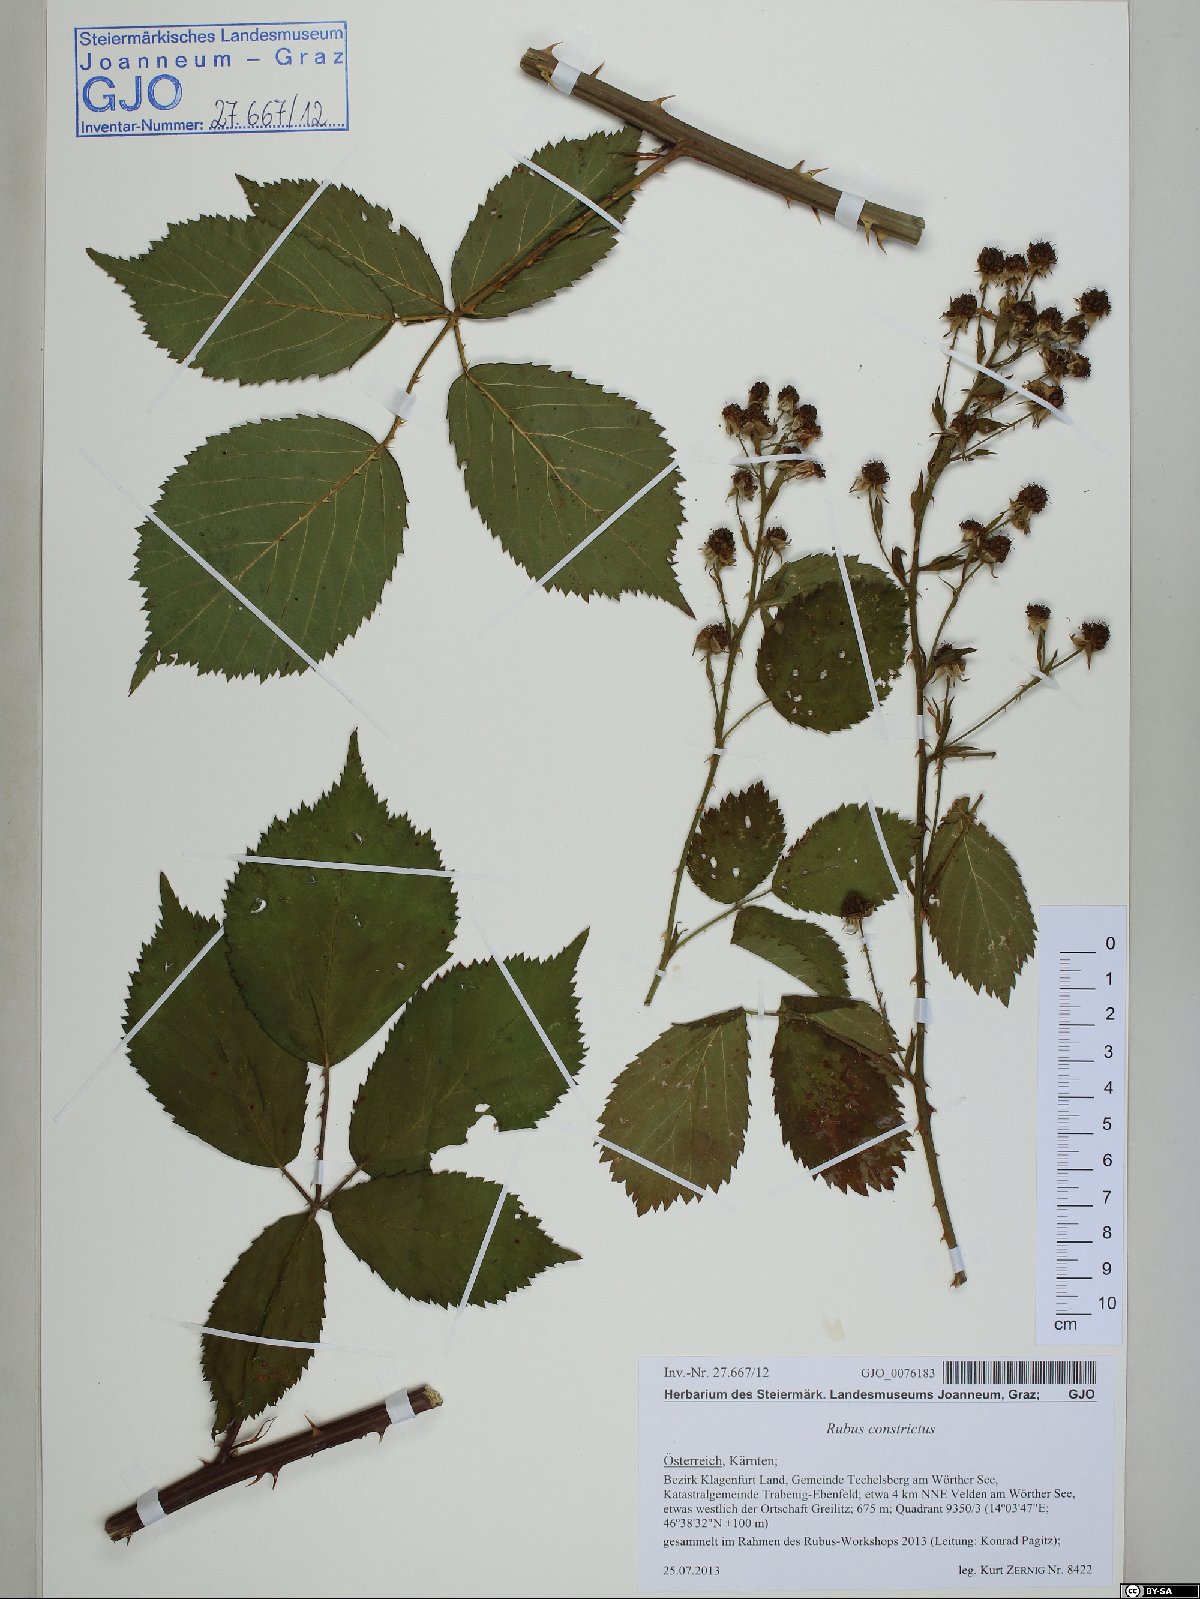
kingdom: Plantae
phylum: Tracheophyta
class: Magnoliopsida
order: Rosales
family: Rosaceae
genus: Rubus
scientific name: Rubus constrictus
